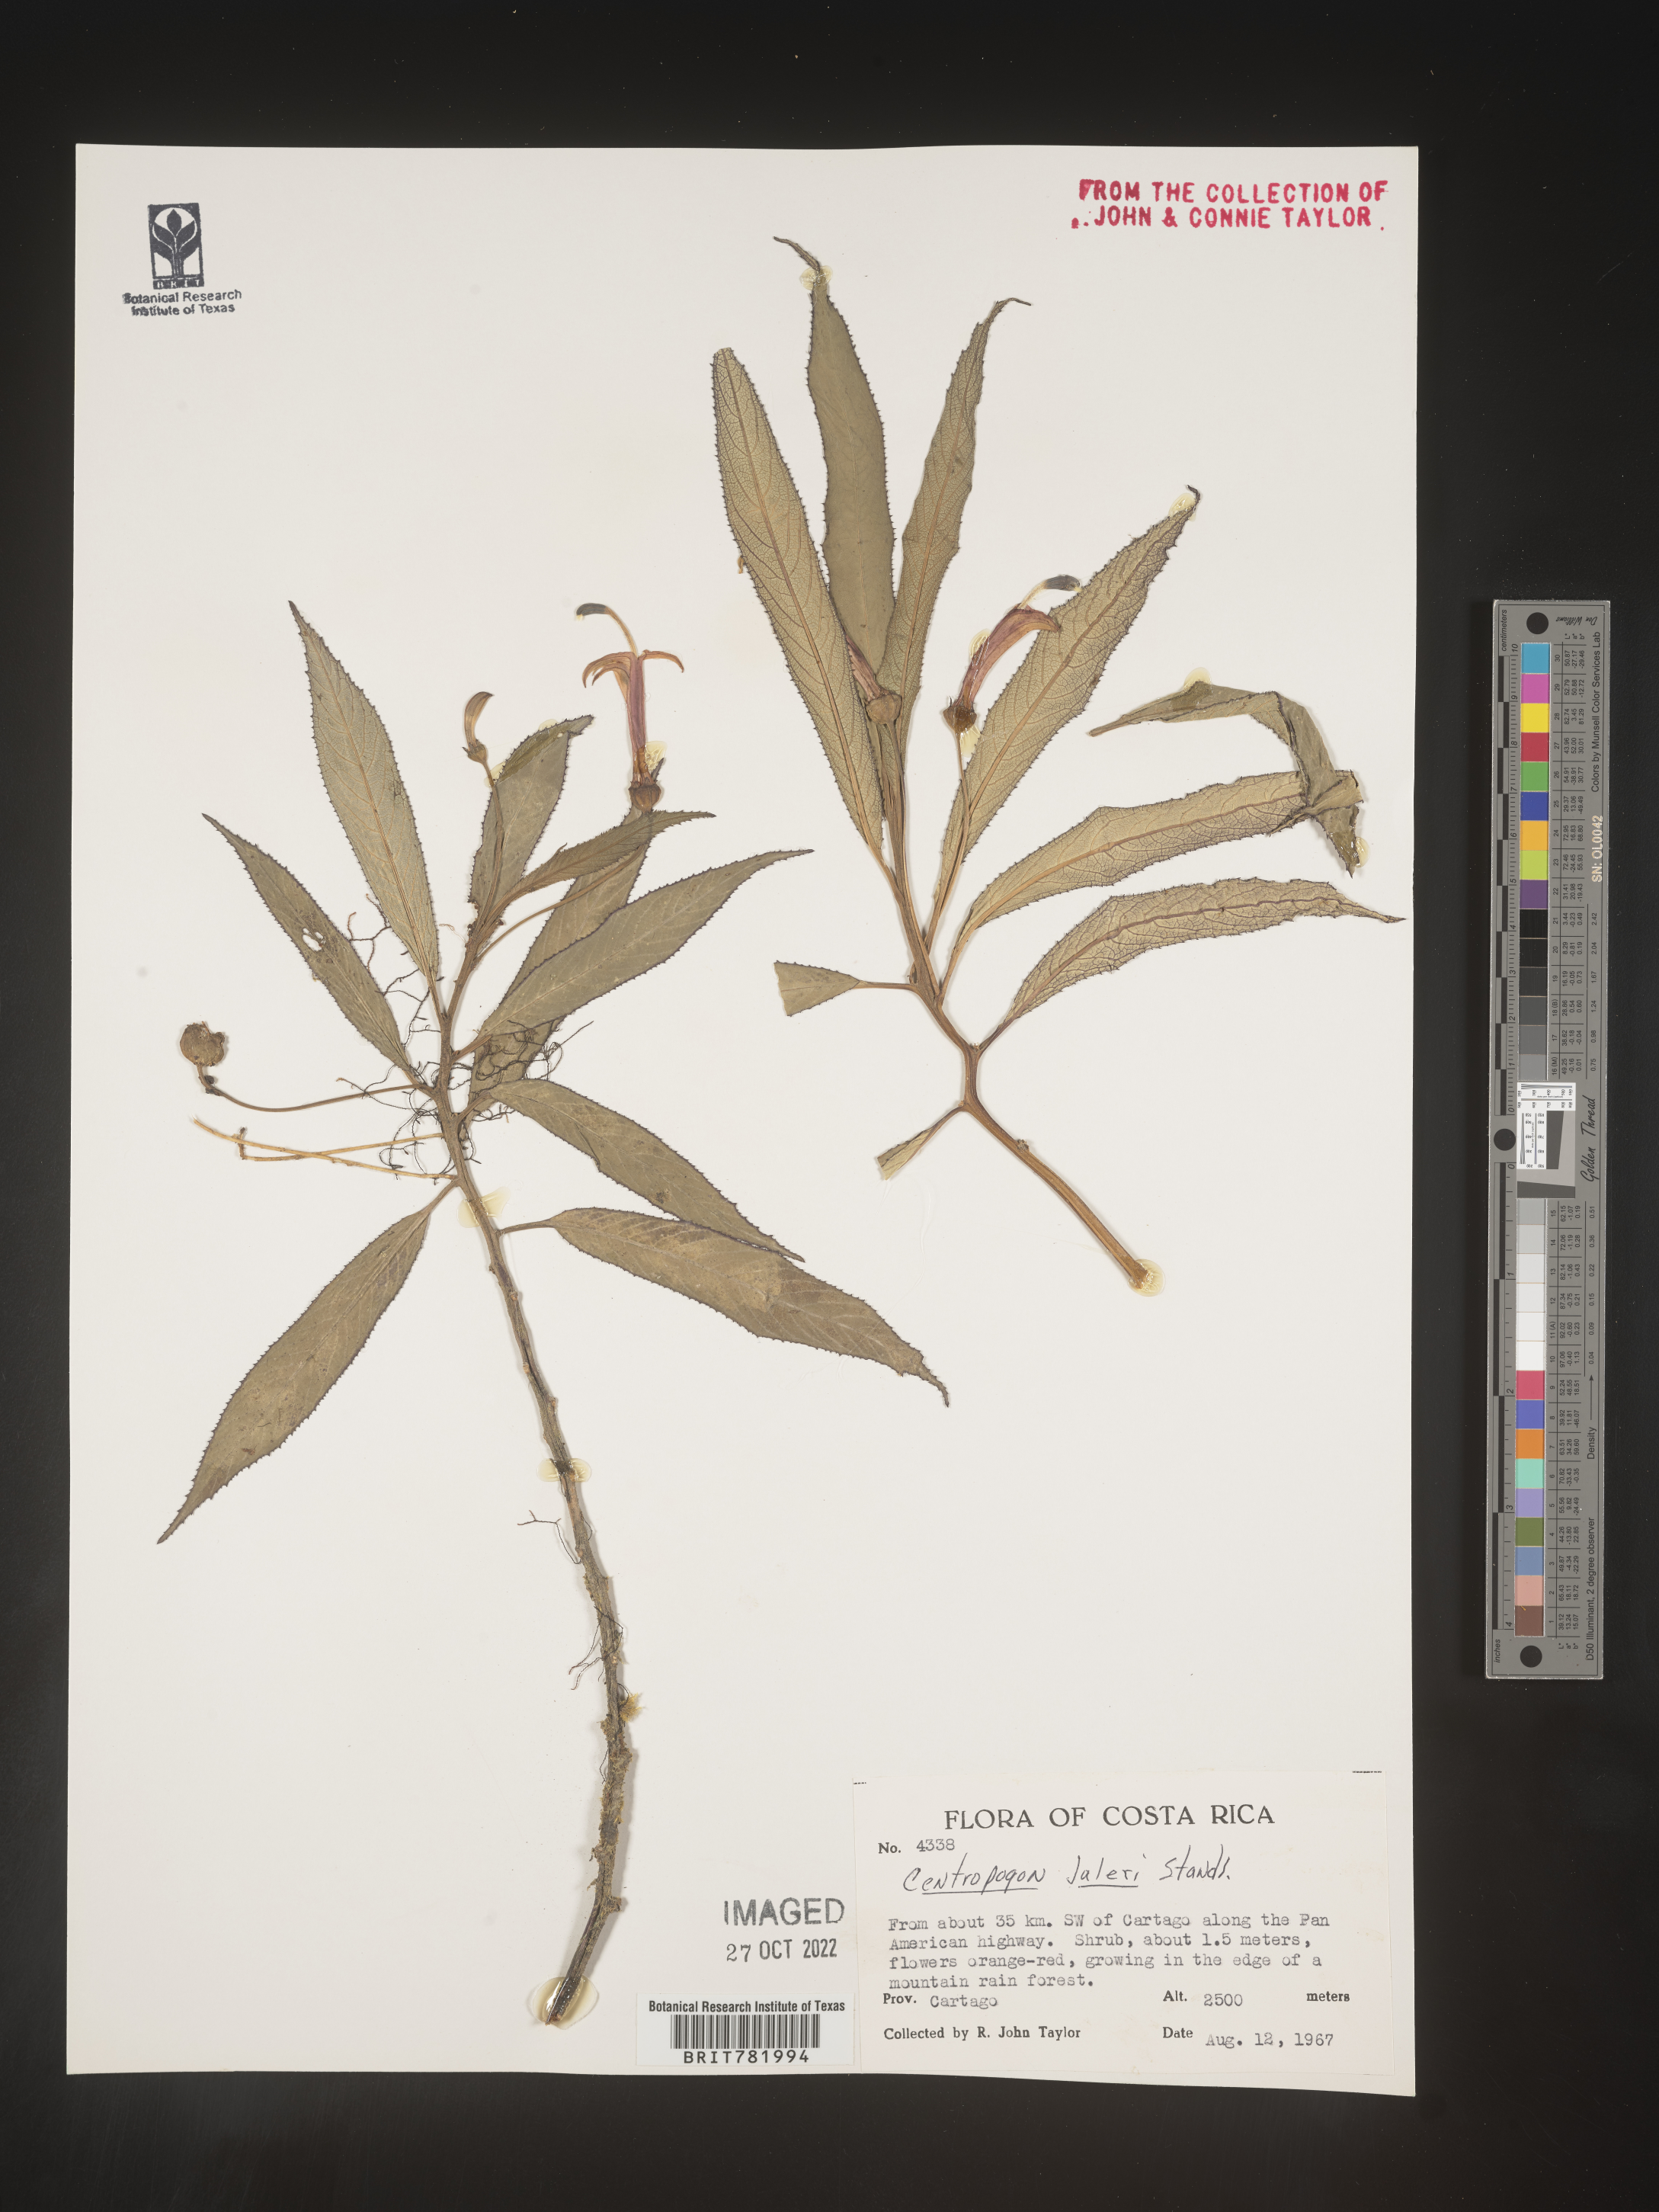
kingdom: Plantae
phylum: Tracheophyta
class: Magnoliopsida
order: Asterales
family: Campanulaceae
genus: Centropogon
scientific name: Centropogon
